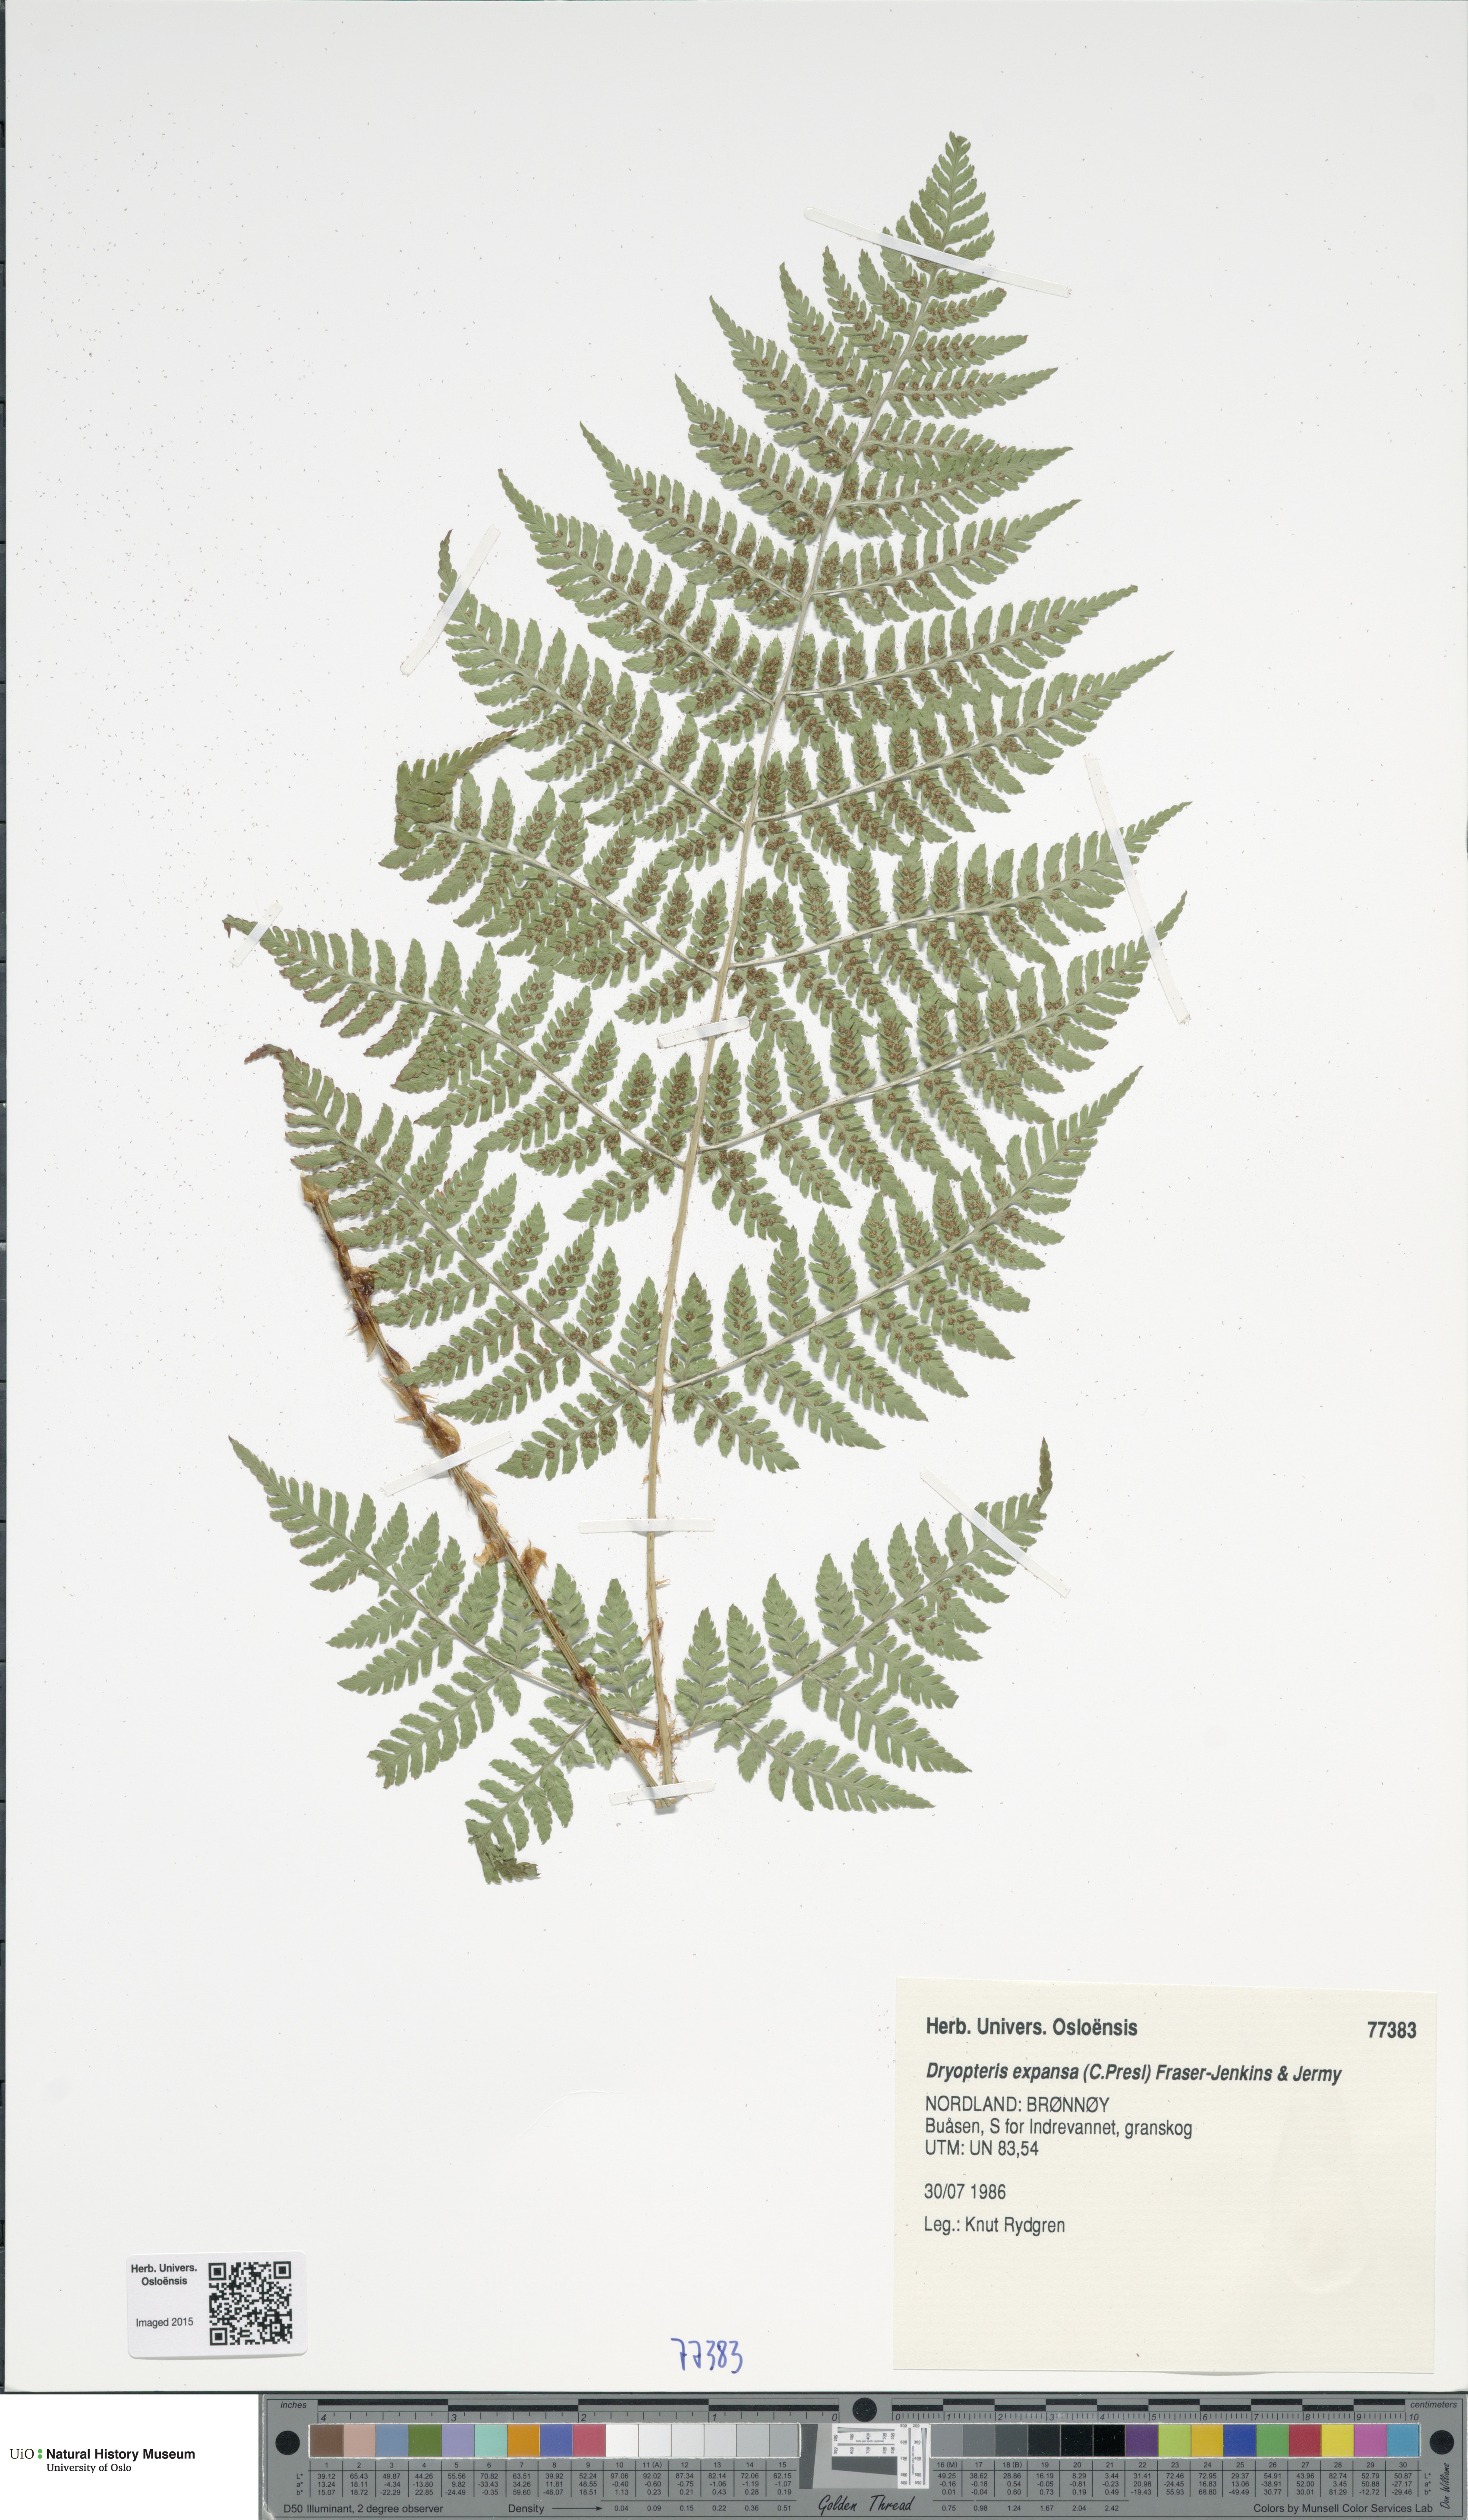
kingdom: Plantae
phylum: Tracheophyta
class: Polypodiopsida
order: Polypodiales
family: Dryopteridaceae
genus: Dryopteris
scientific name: Dryopteris expansa
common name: Northern buckler fern
